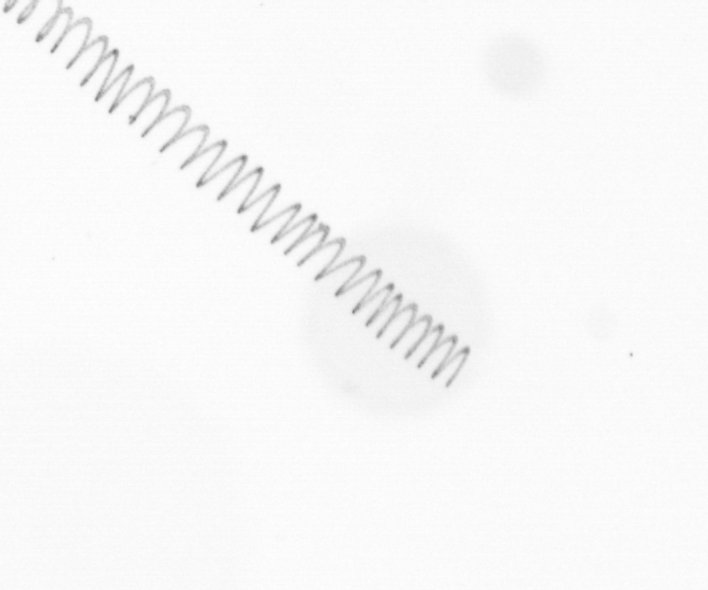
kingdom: Chromista
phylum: Ochrophyta
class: Bacillariophyceae
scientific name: Bacillariophyceae
